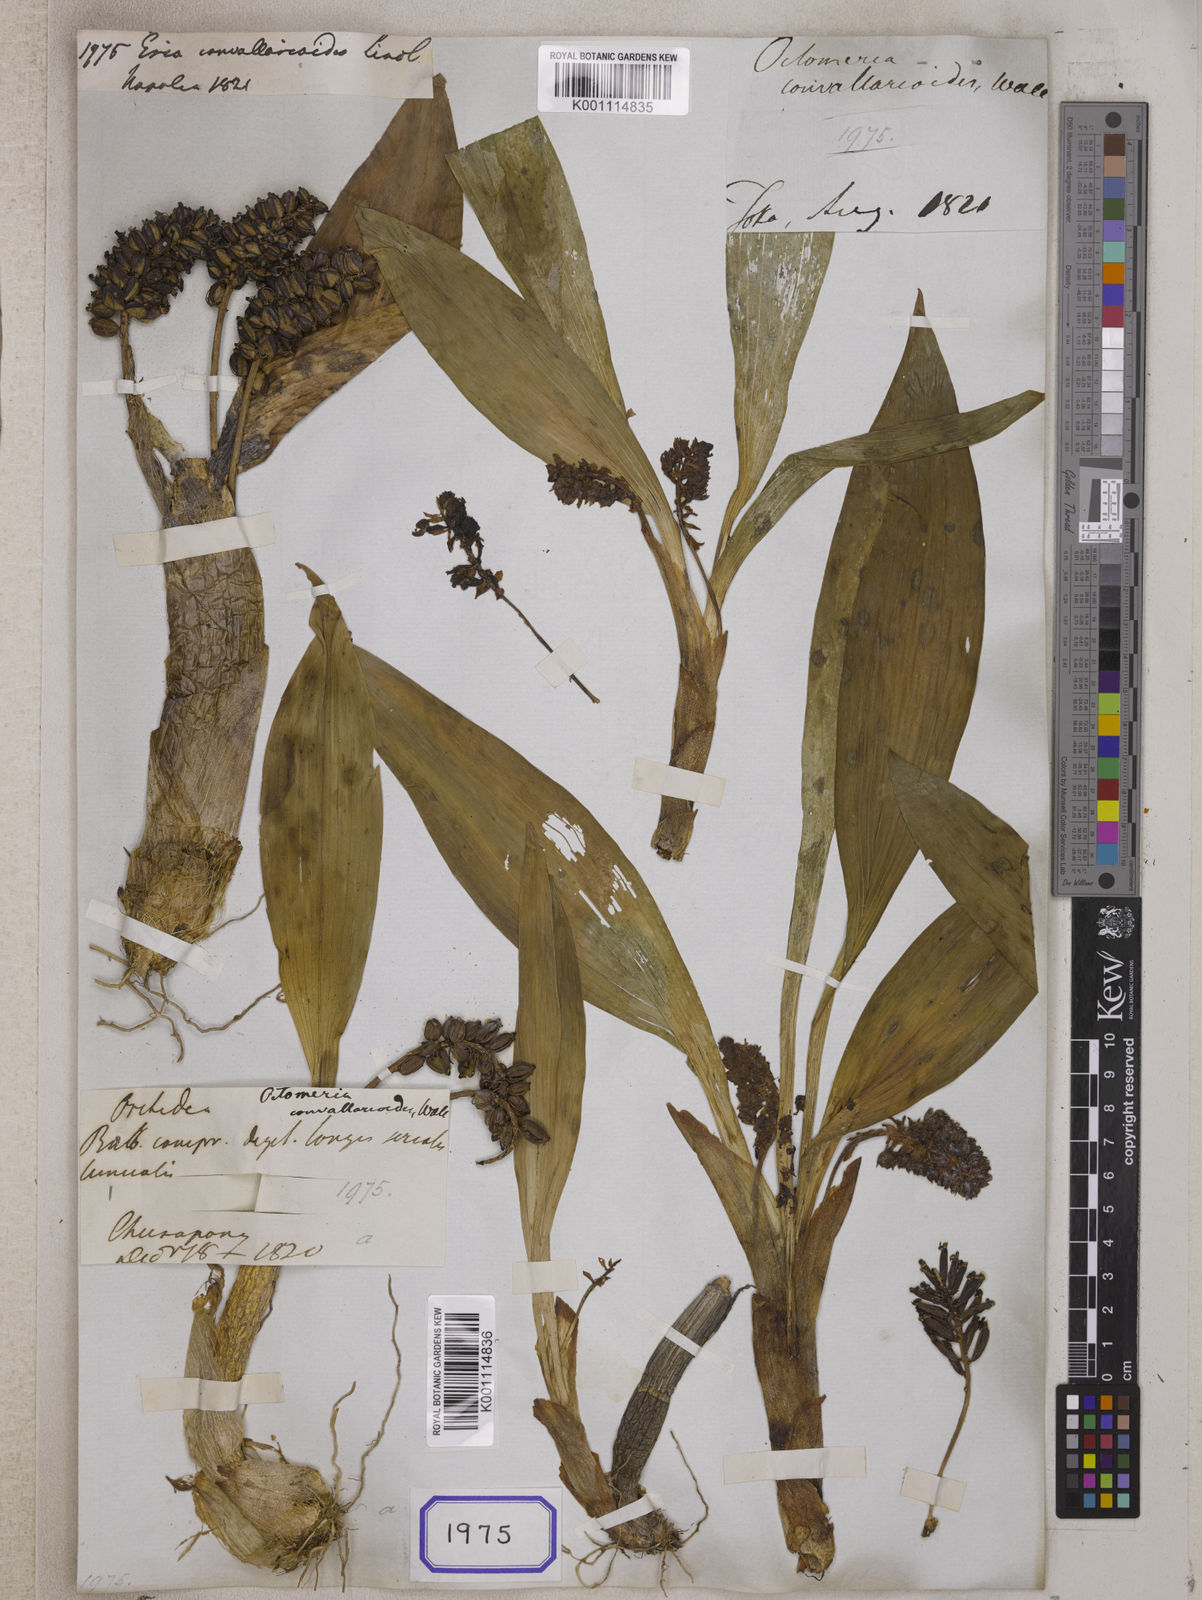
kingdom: Plantae
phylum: Tracheophyta
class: Liliopsida
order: Asparagales
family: Orchidaceae
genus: Pinalia
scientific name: Pinalia spicata
